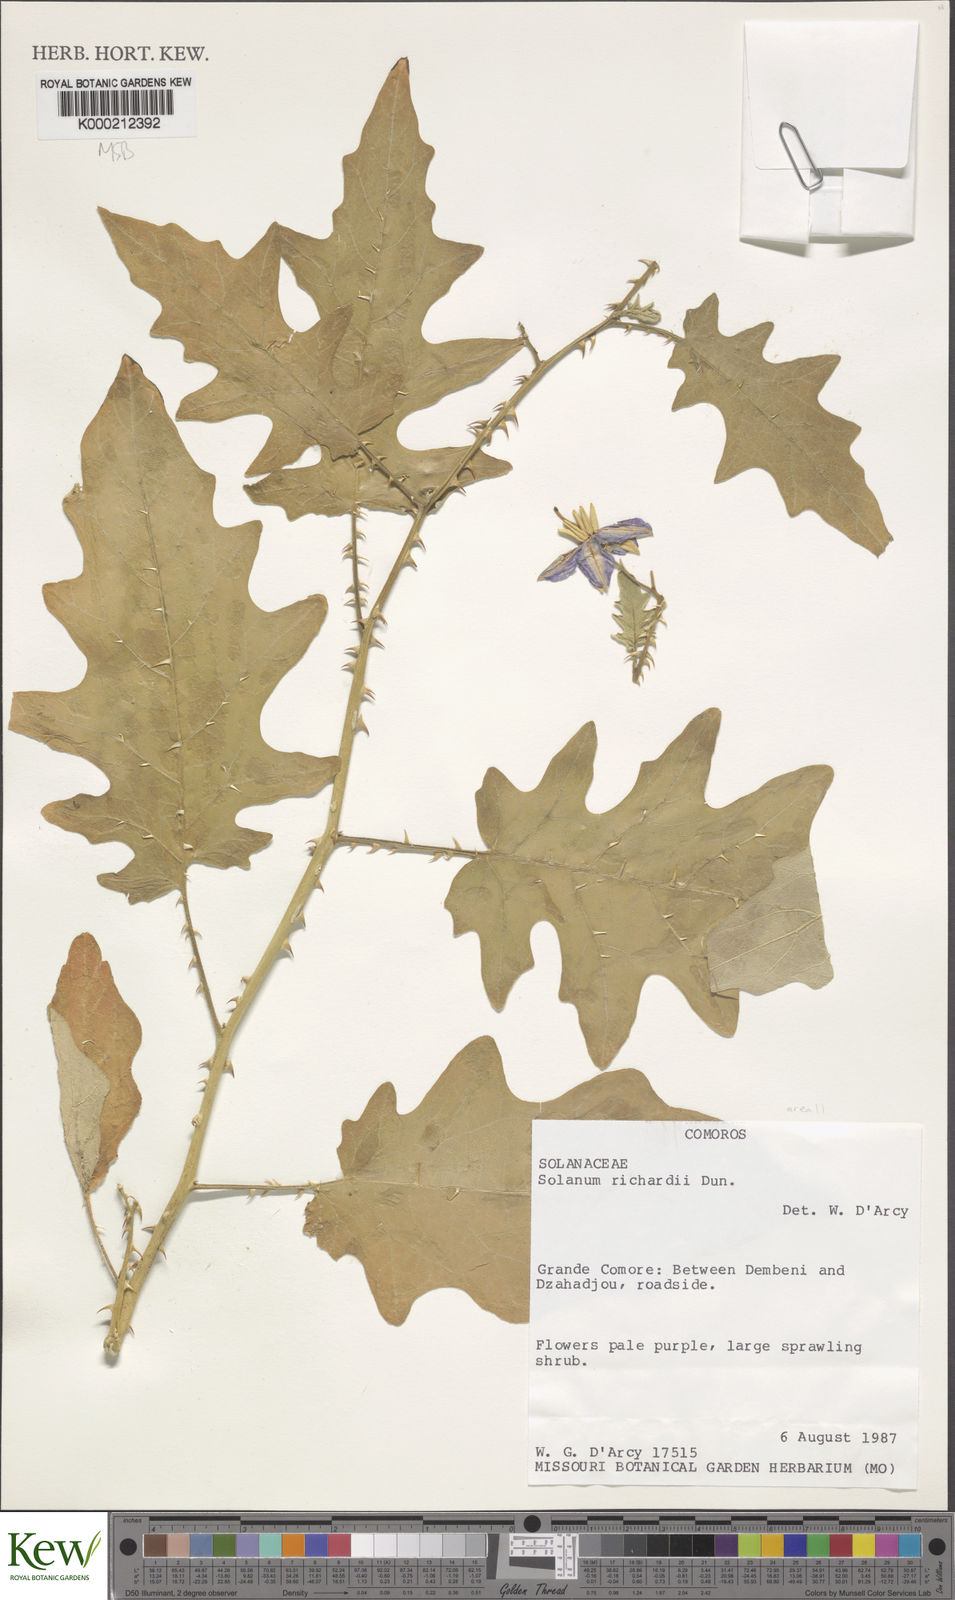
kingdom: Plantae
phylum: Tracheophyta
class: Magnoliopsida
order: Solanales
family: Solanaceae
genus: Solanum
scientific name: Solanum richardii
